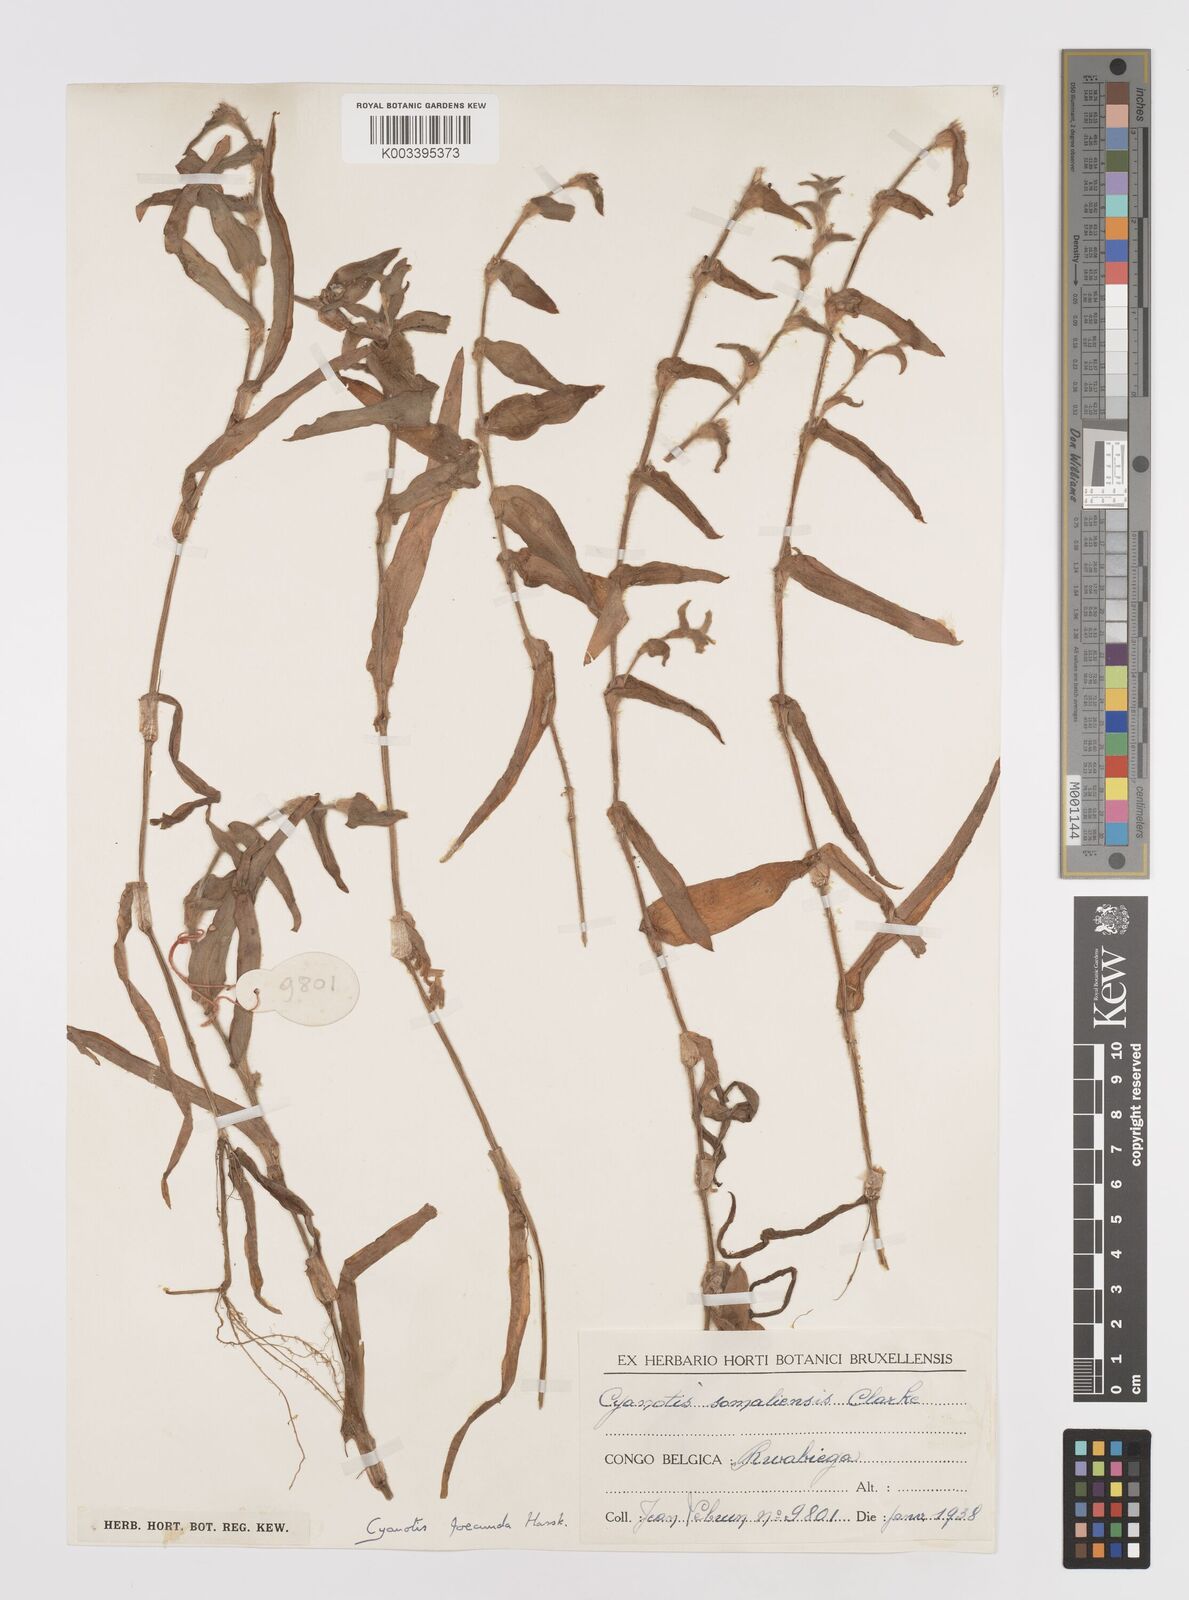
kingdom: Plantae
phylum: Tracheophyta
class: Liliopsida
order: Commelinales
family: Commelinaceae
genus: Cyanotis
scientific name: Cyanotis foecunda
